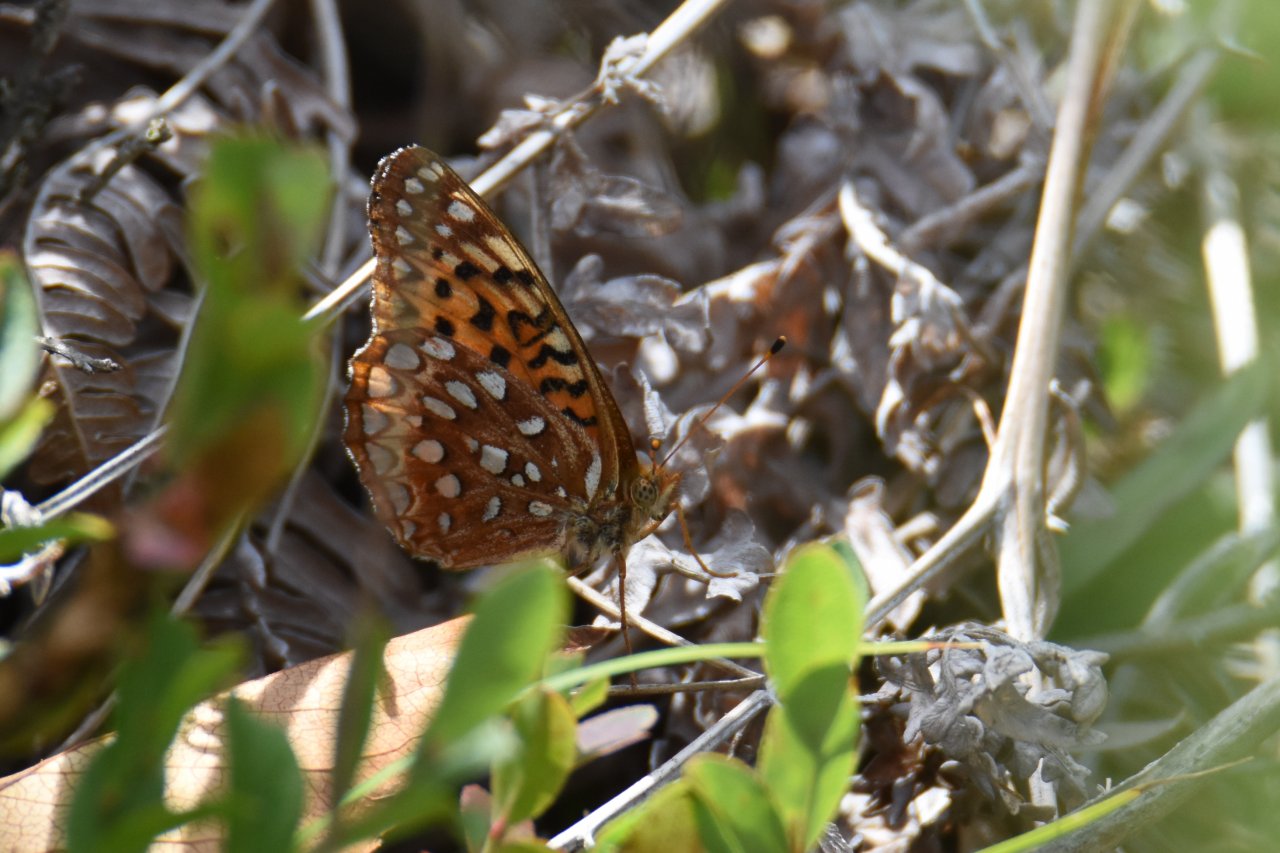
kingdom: Animalia
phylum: Arthropoda
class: Insecta
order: Lepidoptera
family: Nymphalidae
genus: Speyeria
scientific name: Speyeria aphrodite
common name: Aphrodite Fritillary
